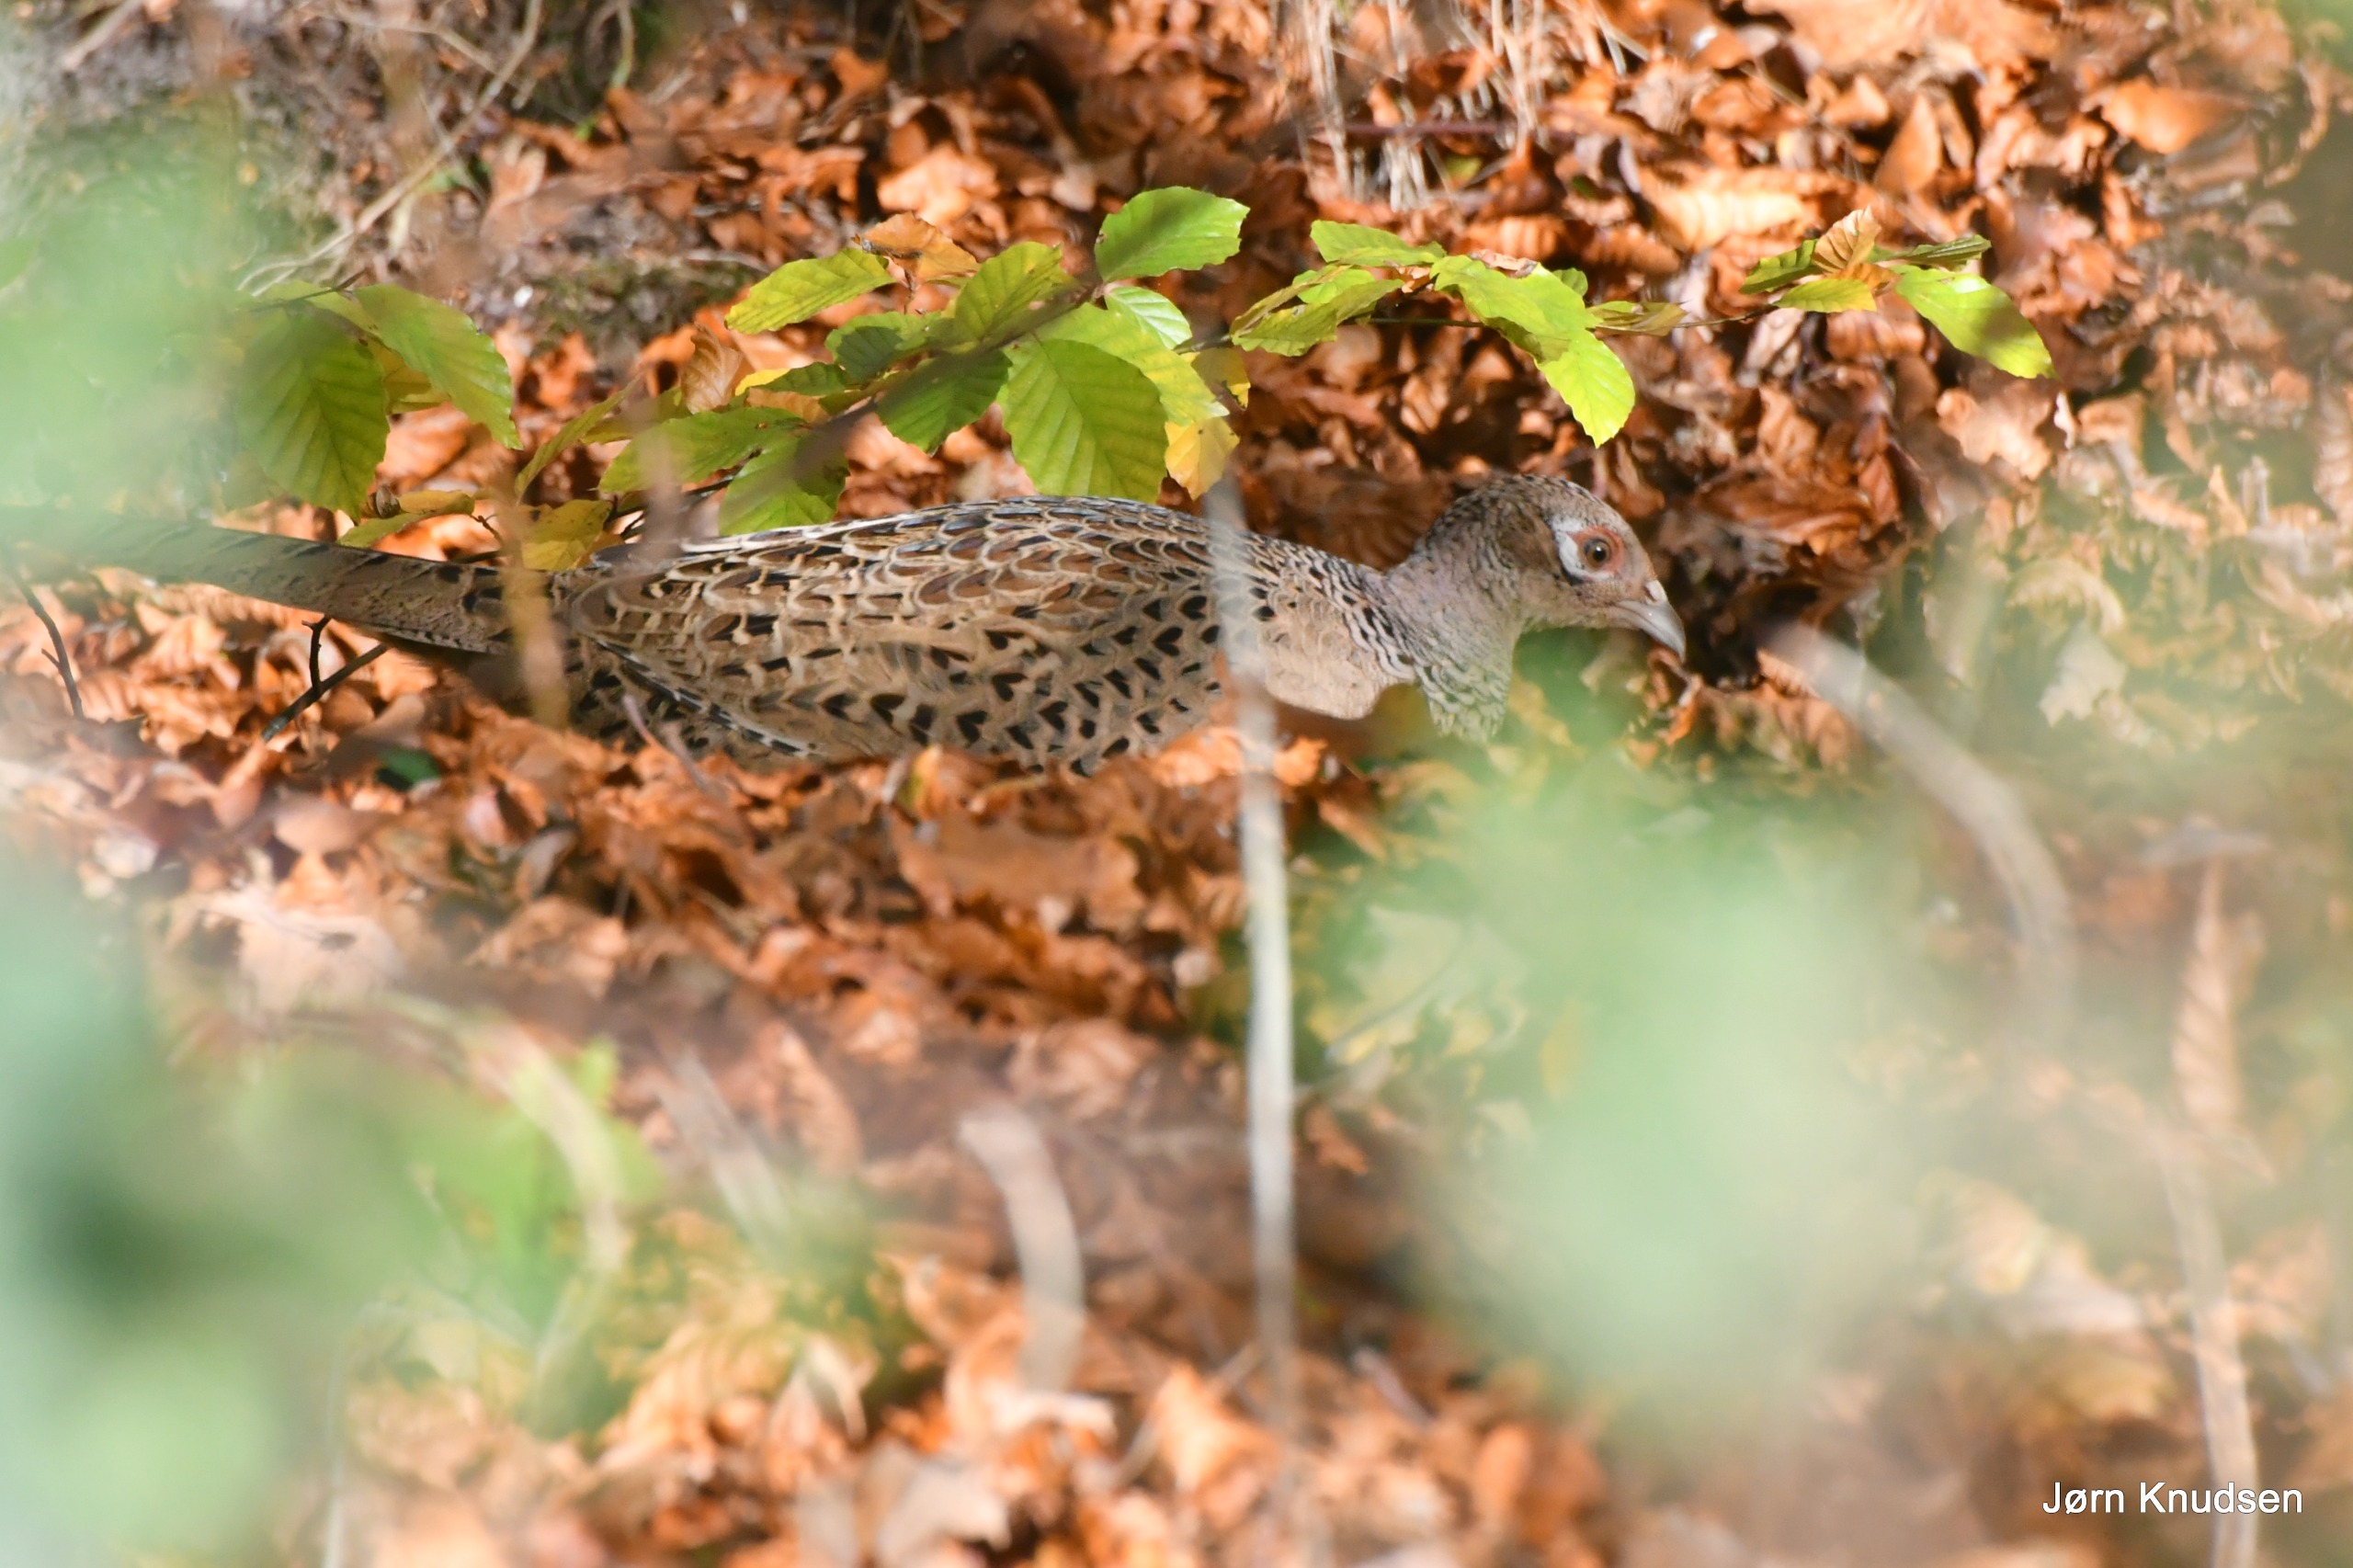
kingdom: Animalia
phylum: Chordata
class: Aves
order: Galliformes
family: Phasianidae
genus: Phasianus
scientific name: Phasianus colchicus
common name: Fasan
